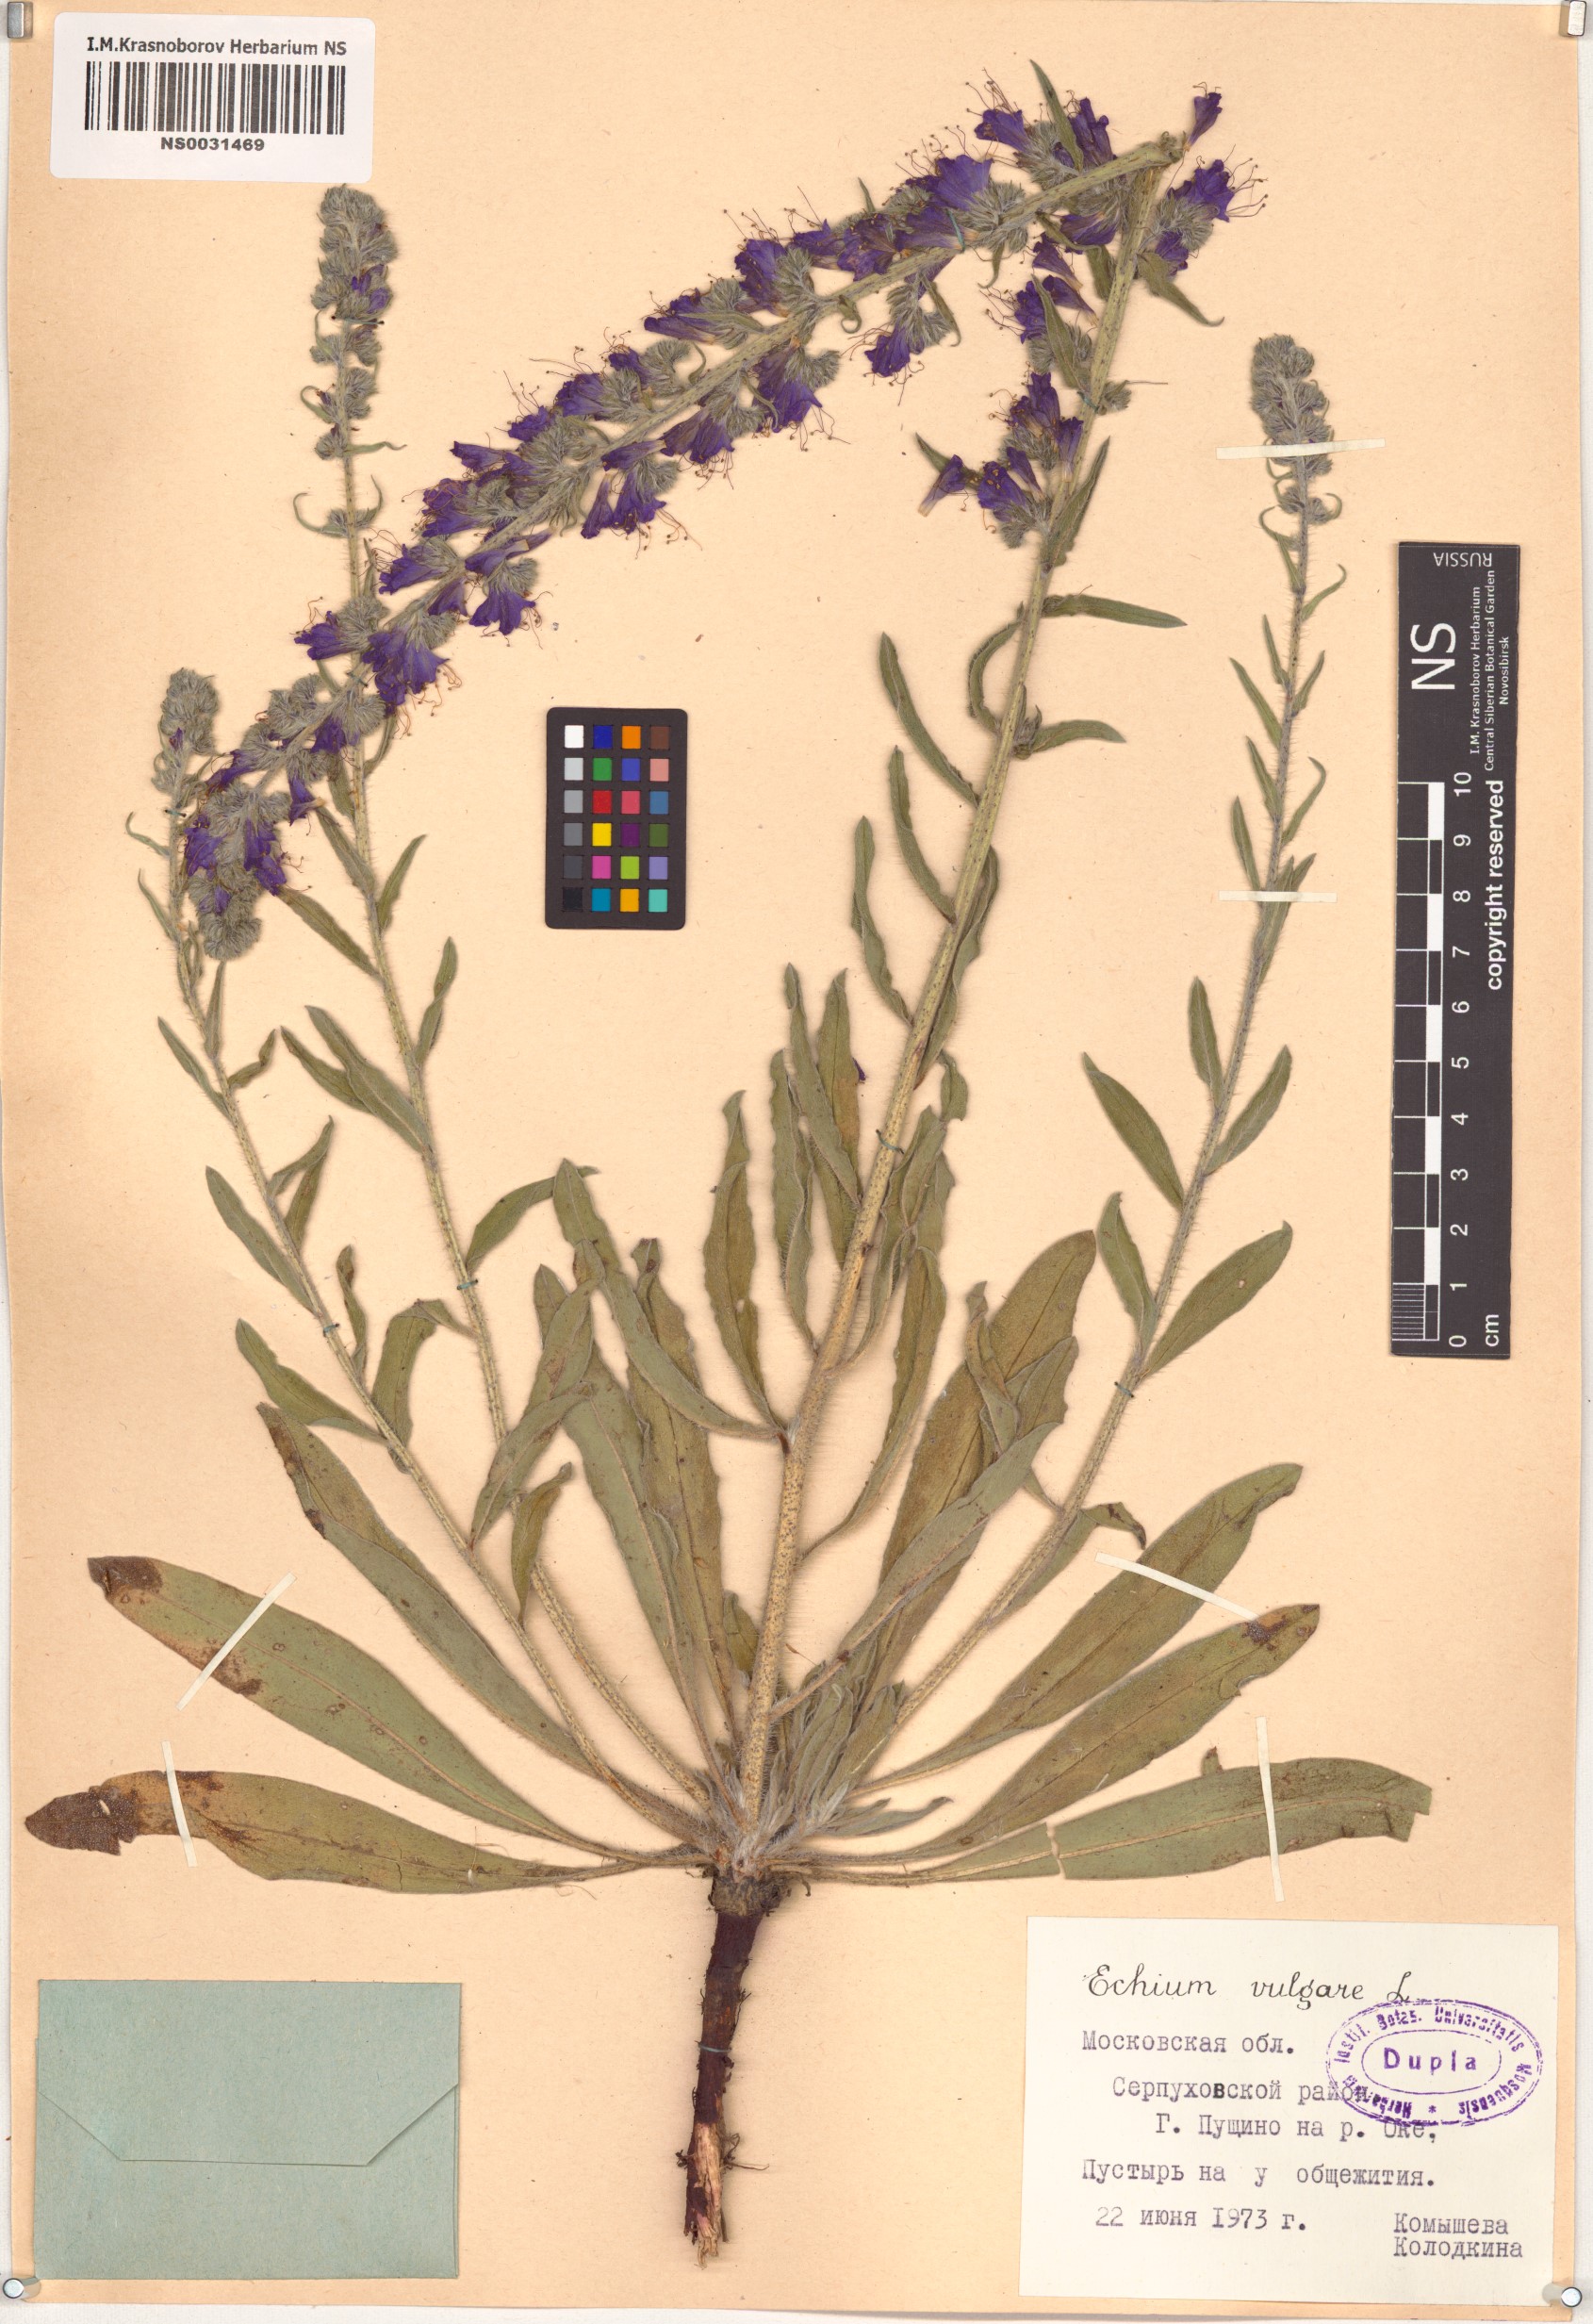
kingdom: Plantae
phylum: Tracheophyta
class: Magnoliopsida
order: Boraginales
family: Boraginaceae
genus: Echium
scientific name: Echium vulgare
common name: Common viper's bugloss
